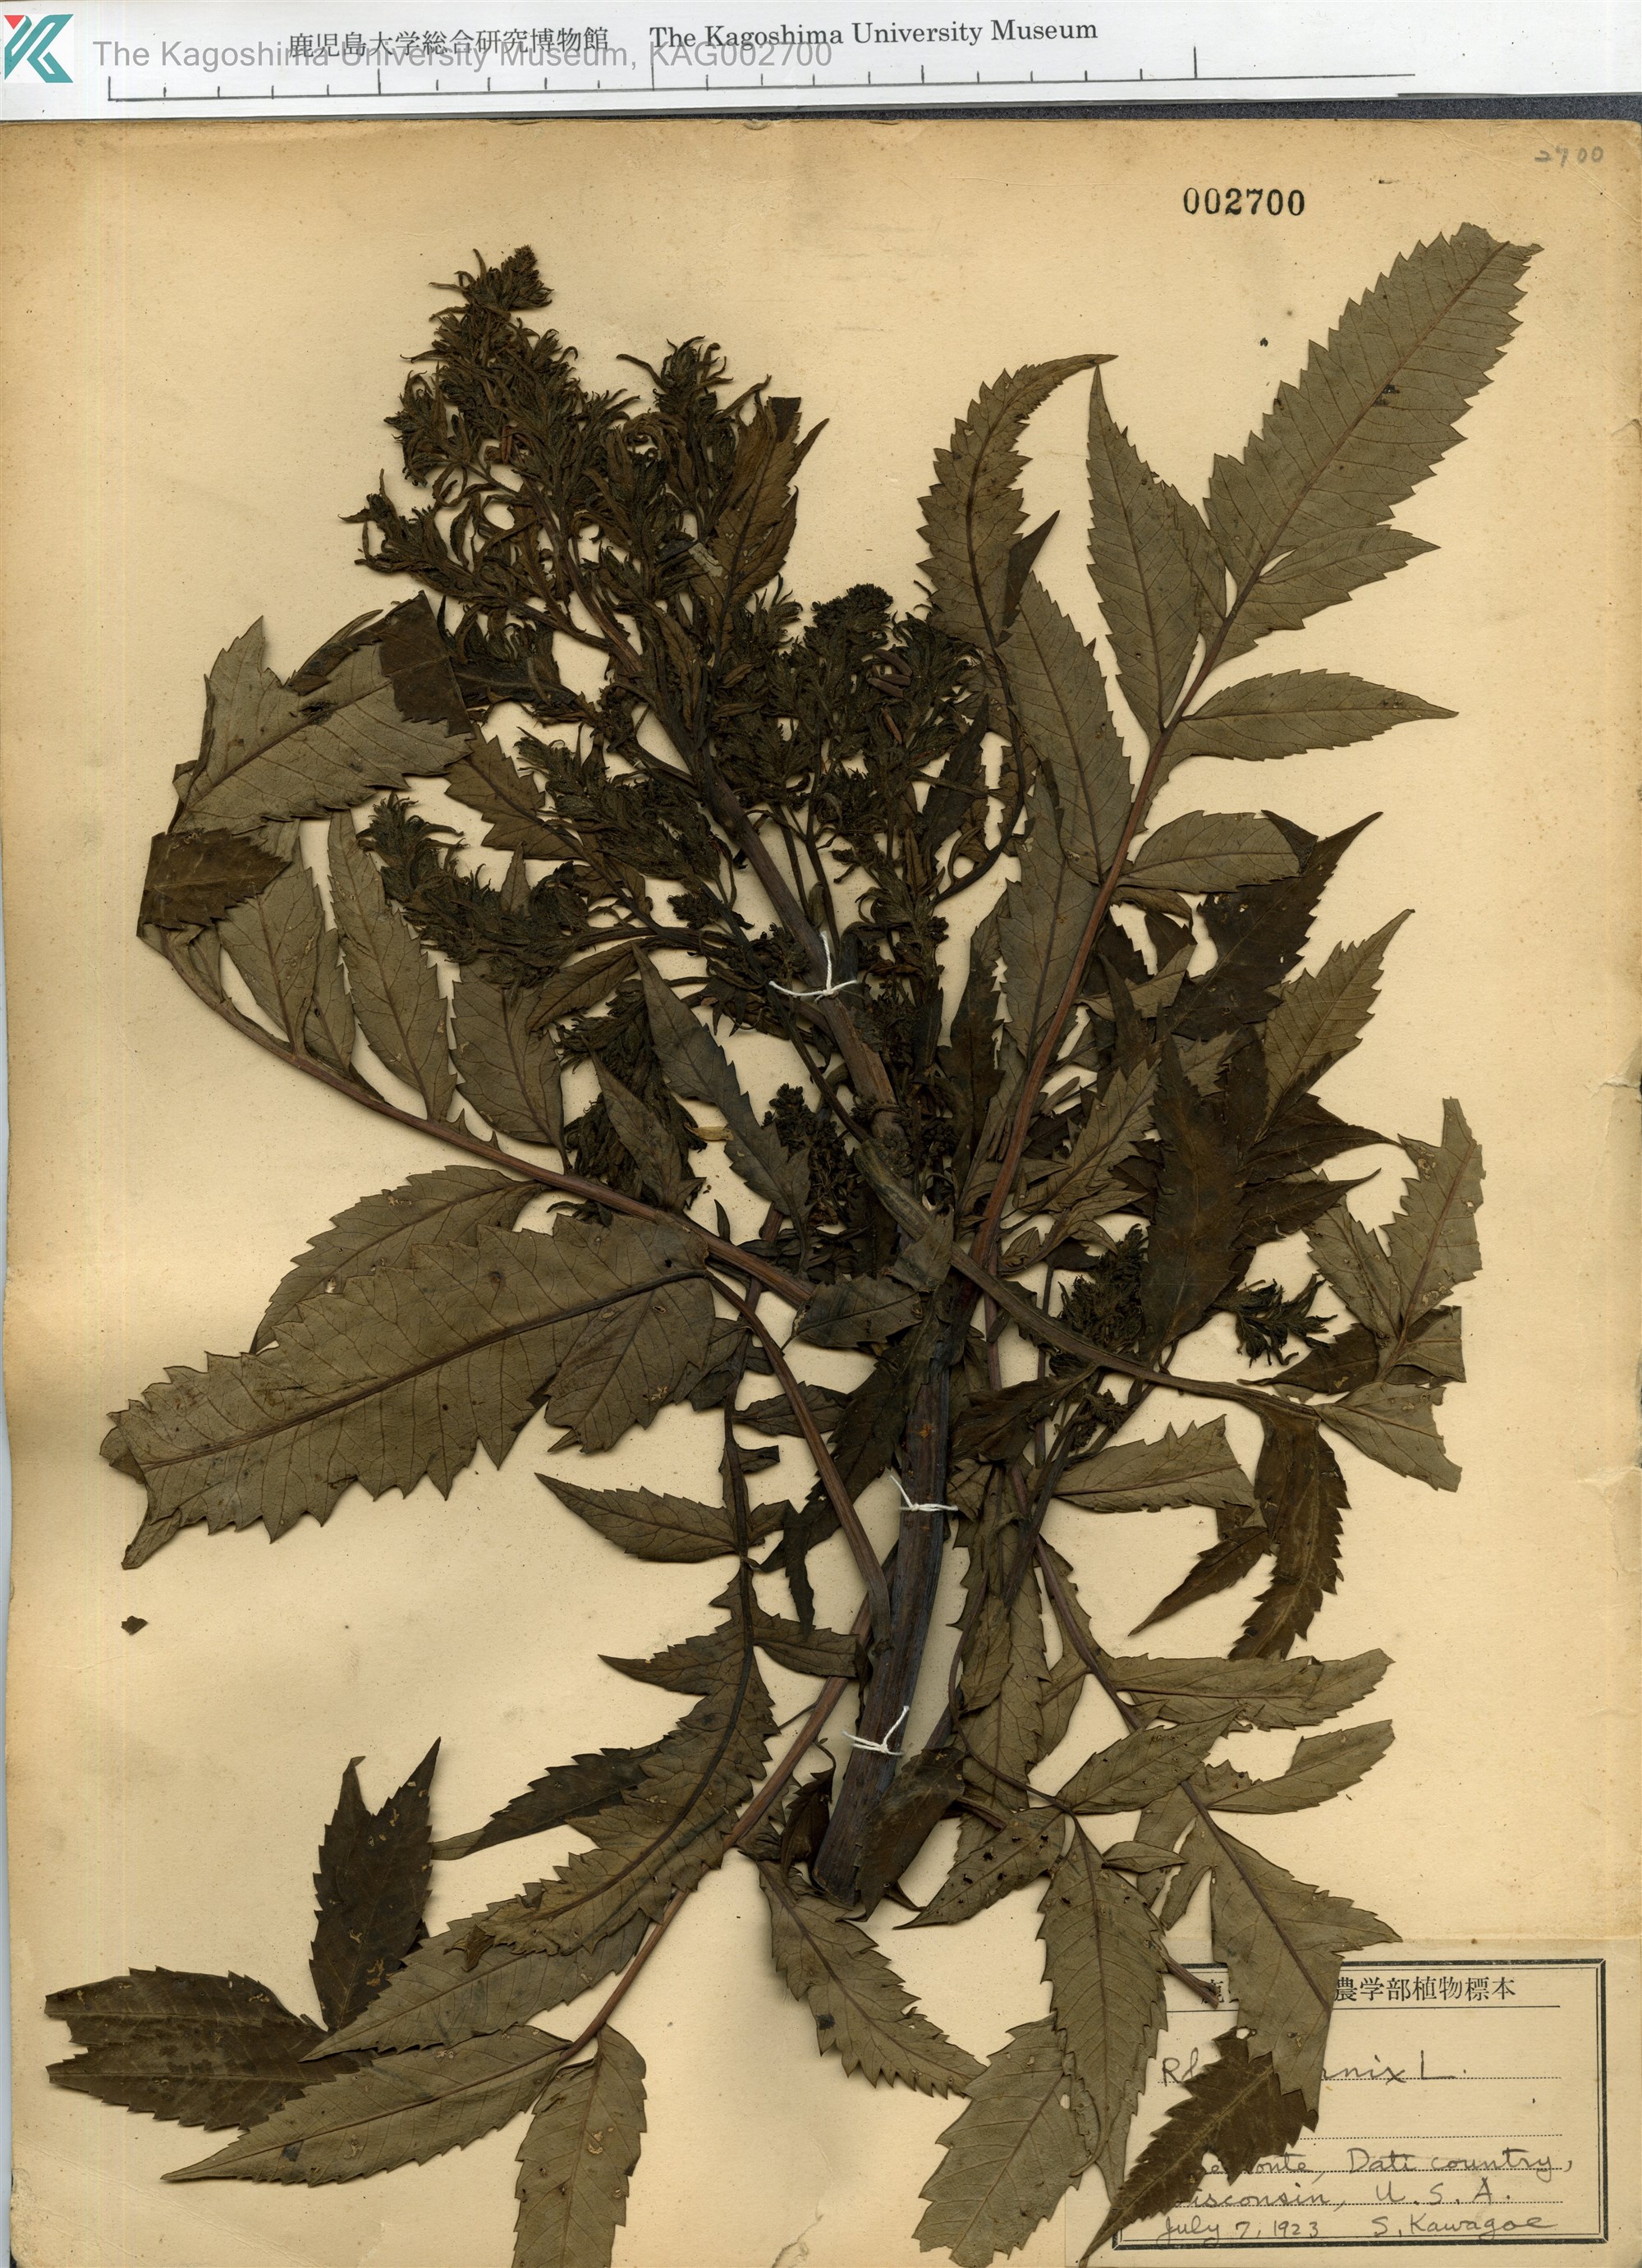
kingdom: Plantae
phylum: Tracheophyta
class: Magnoliopsida
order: Sapindales
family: Anacardiaceae
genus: Toxicodendron
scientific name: Toxicodendron vernix
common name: Poison sumac
